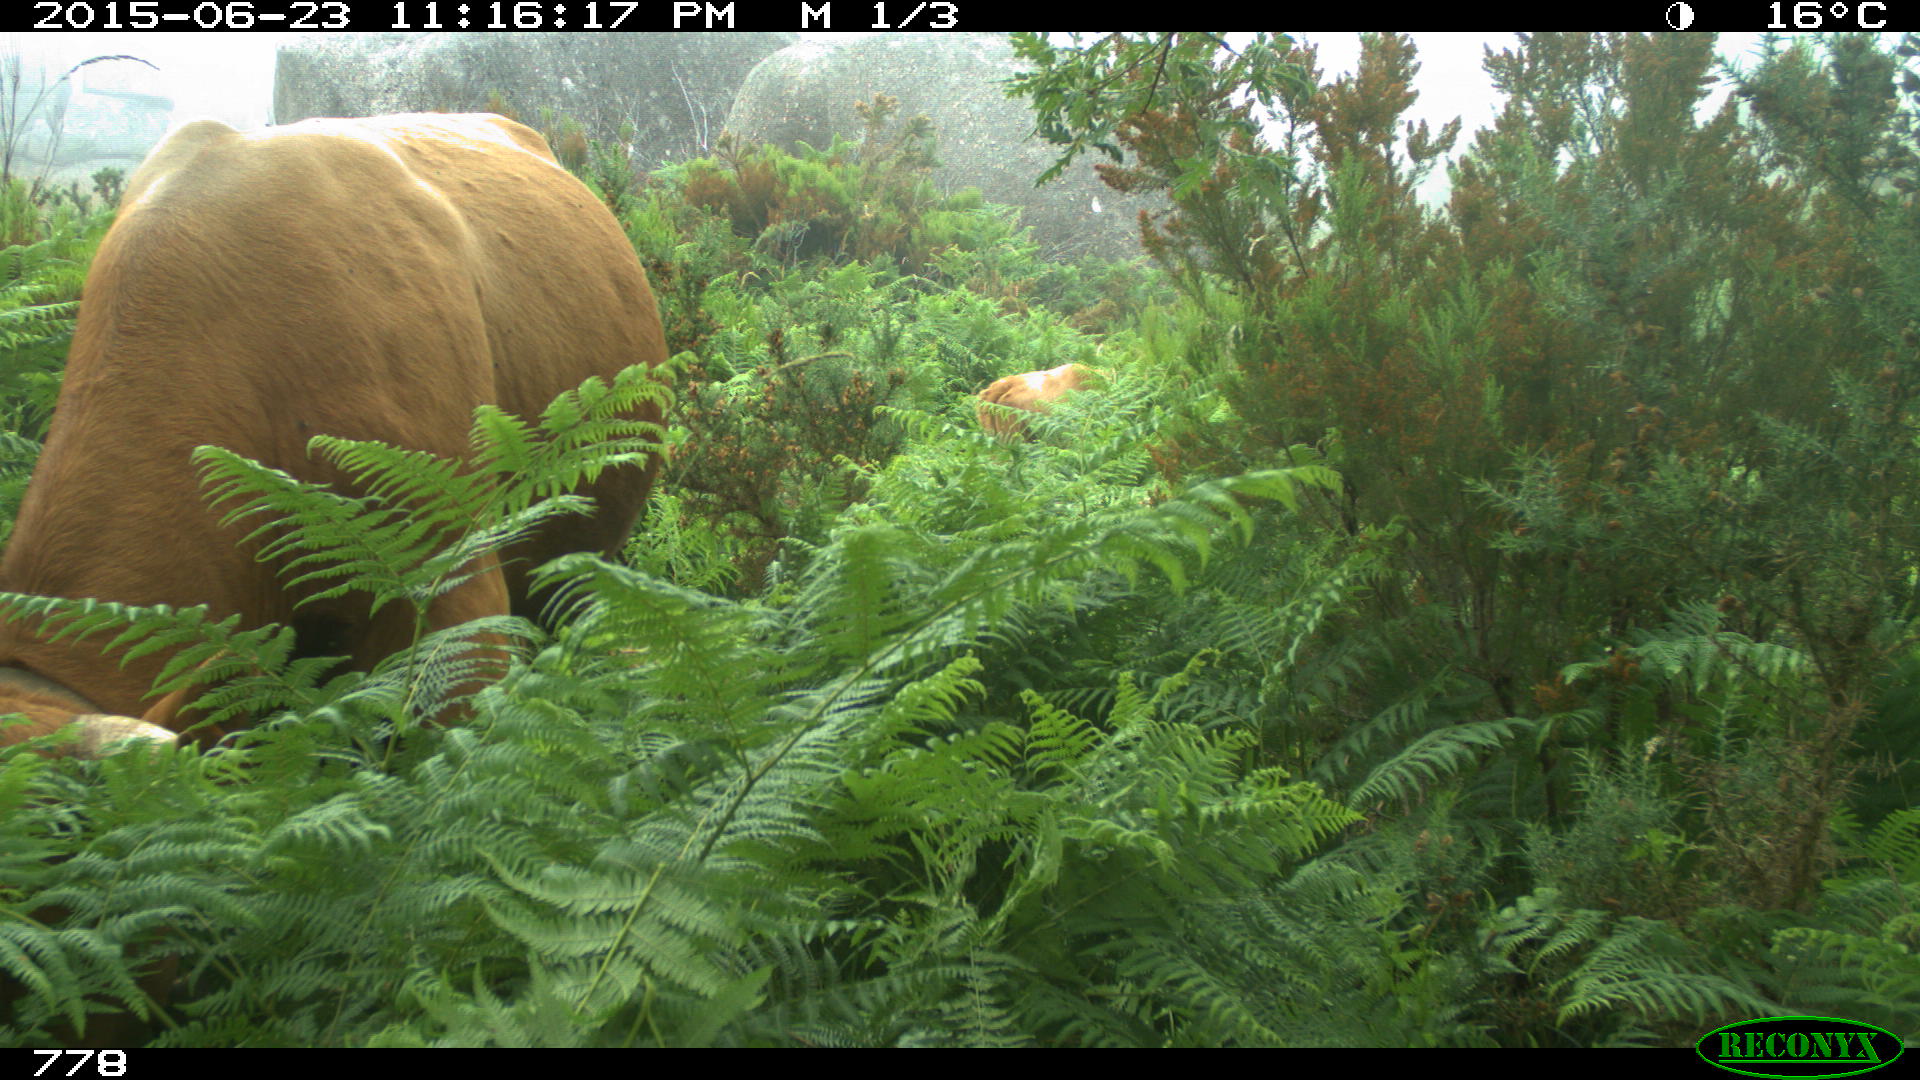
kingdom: Animalia
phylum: Chordata
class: Mammalia
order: Artiodactyla
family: Bovidae
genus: Bos
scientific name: Bos taurus
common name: Domesticated cattle
